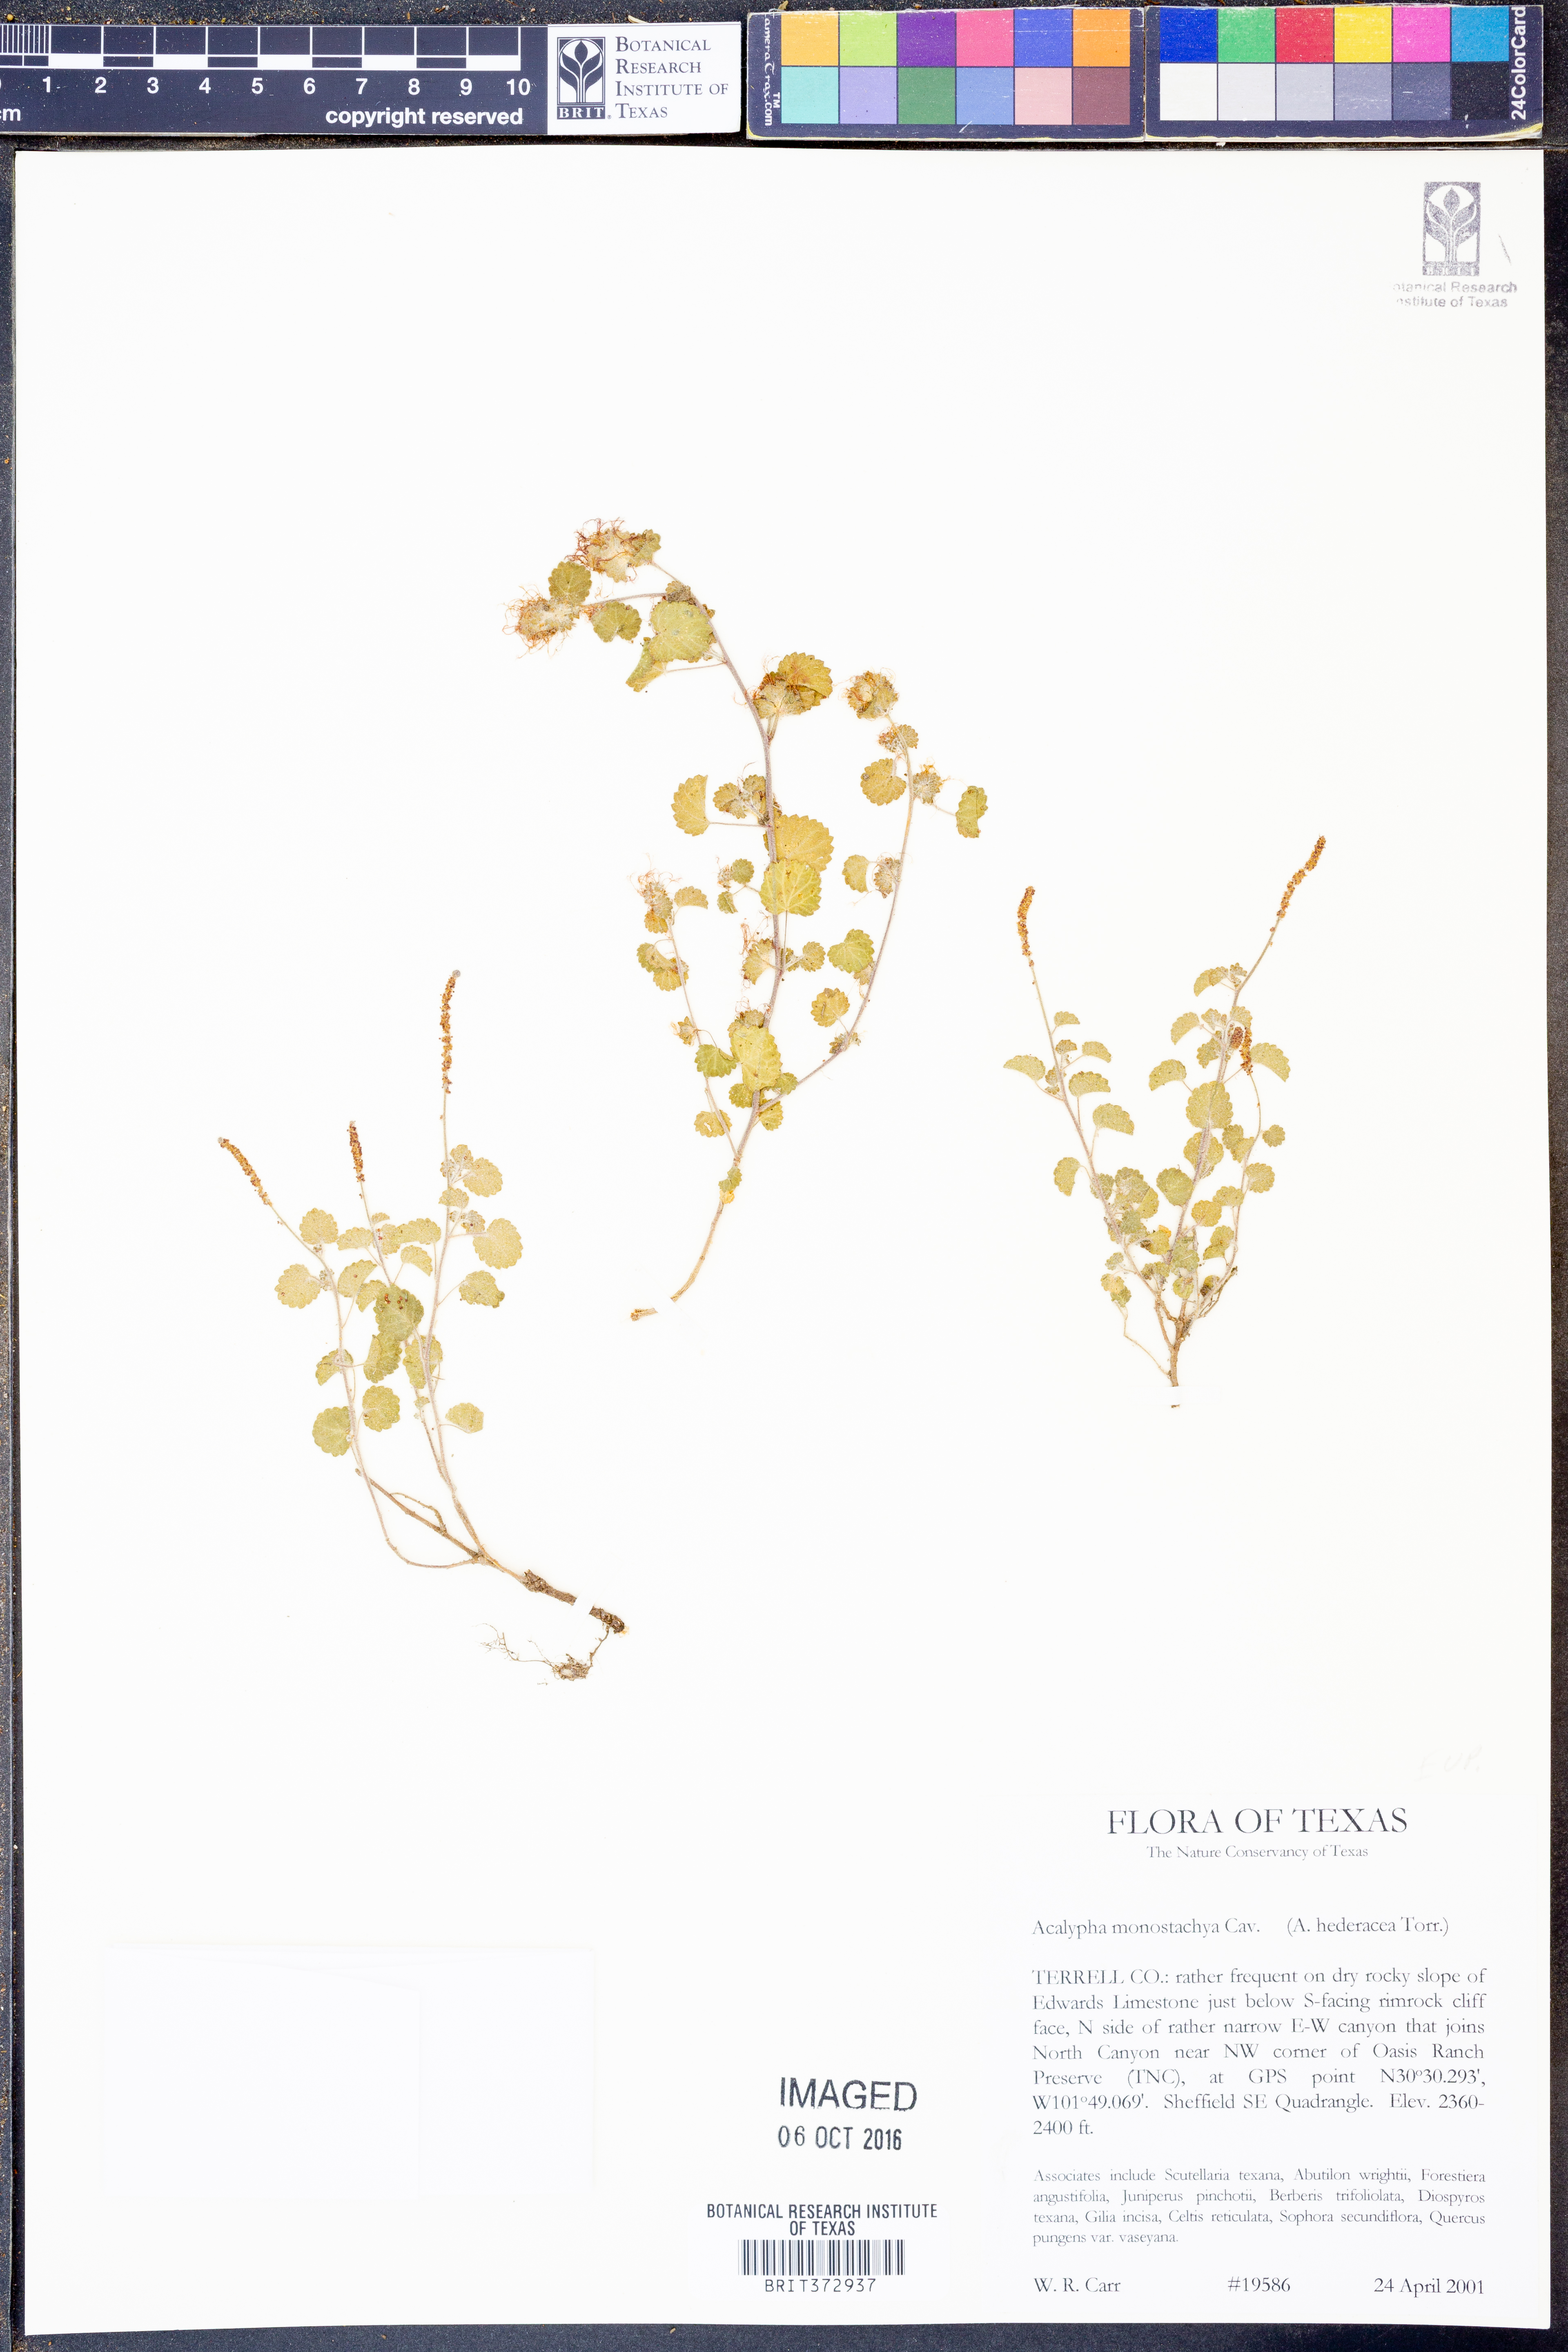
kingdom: Plantae
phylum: Tracheophyta
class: Magnoliopsida
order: Malpighiales
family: Euphorbiaceae
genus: Acalypha
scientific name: Acalypha monostachya
